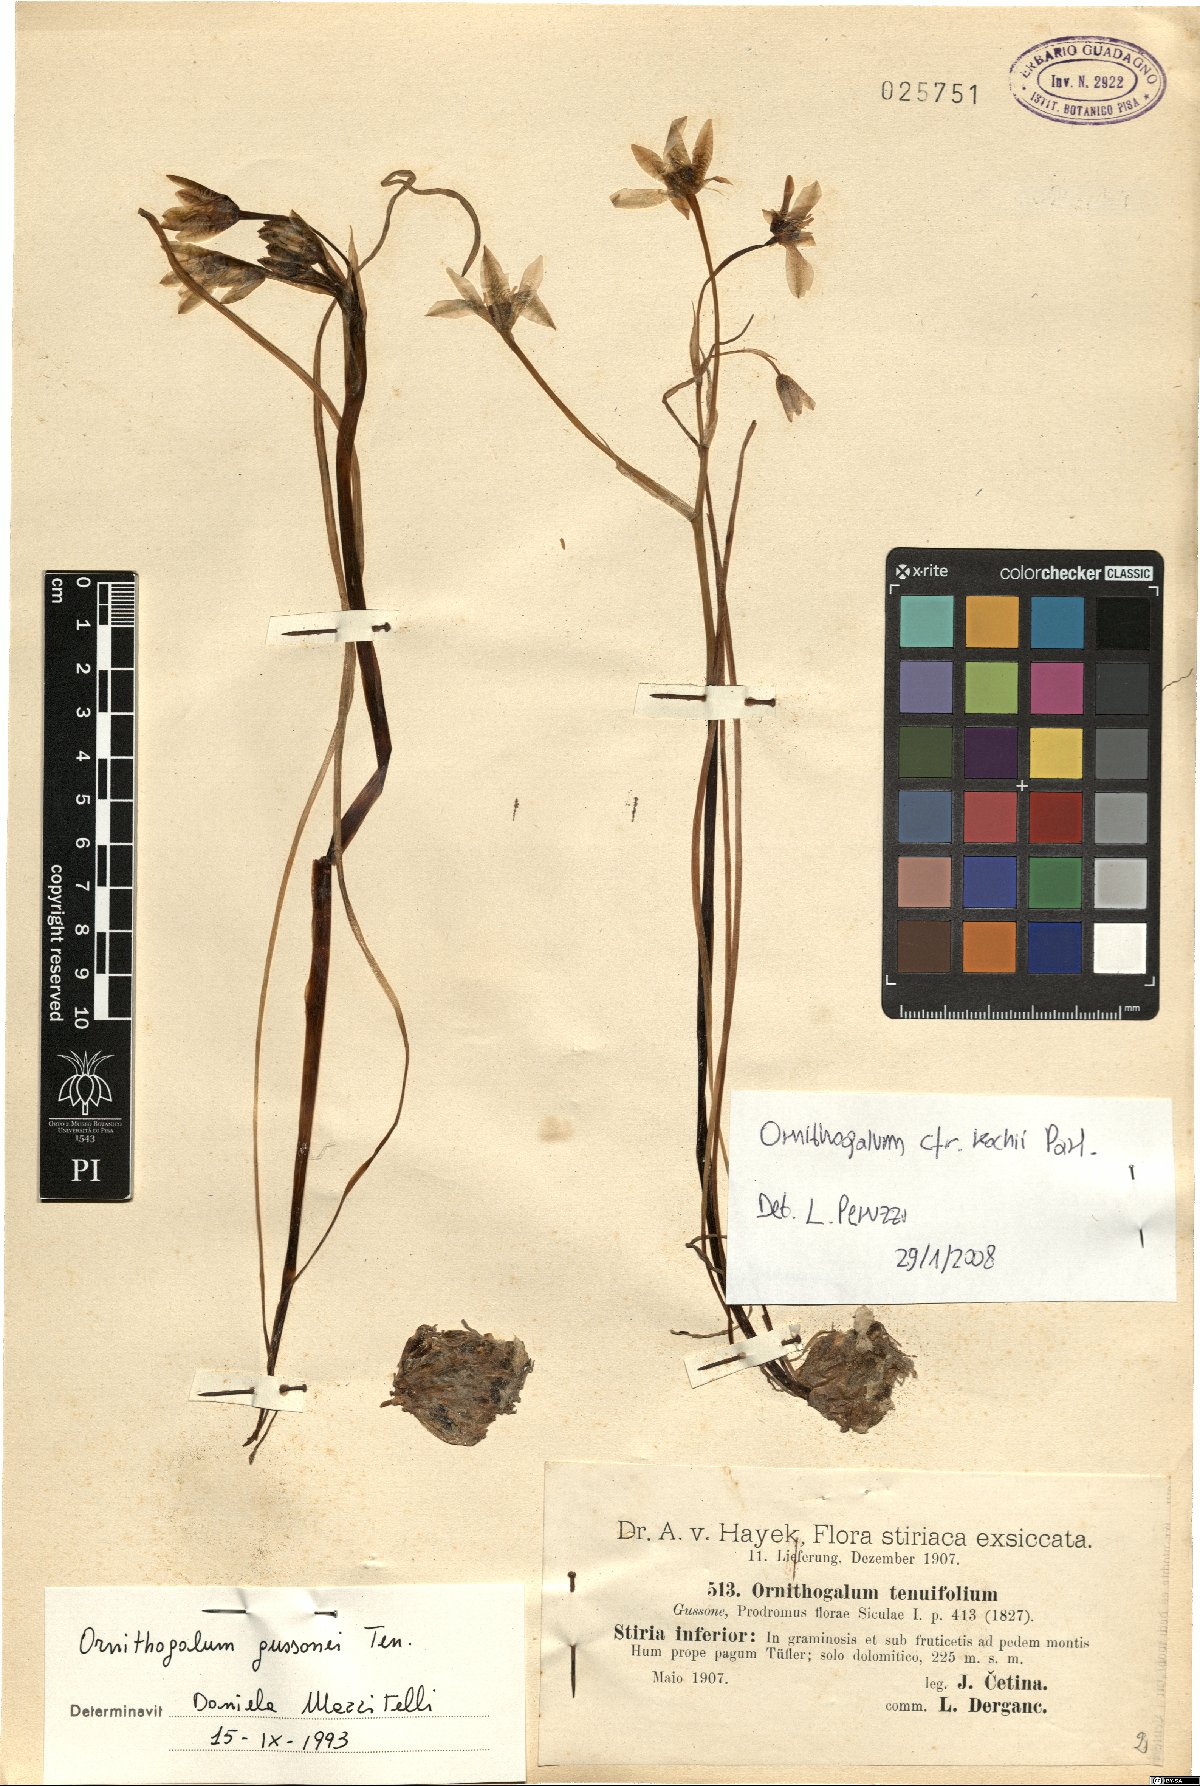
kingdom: Plantae
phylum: Tracheophyta
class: Liliopsida
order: Asparagales
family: Asparagaceae
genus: Ornithogalum
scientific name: Ornithogalum orthophyllum
